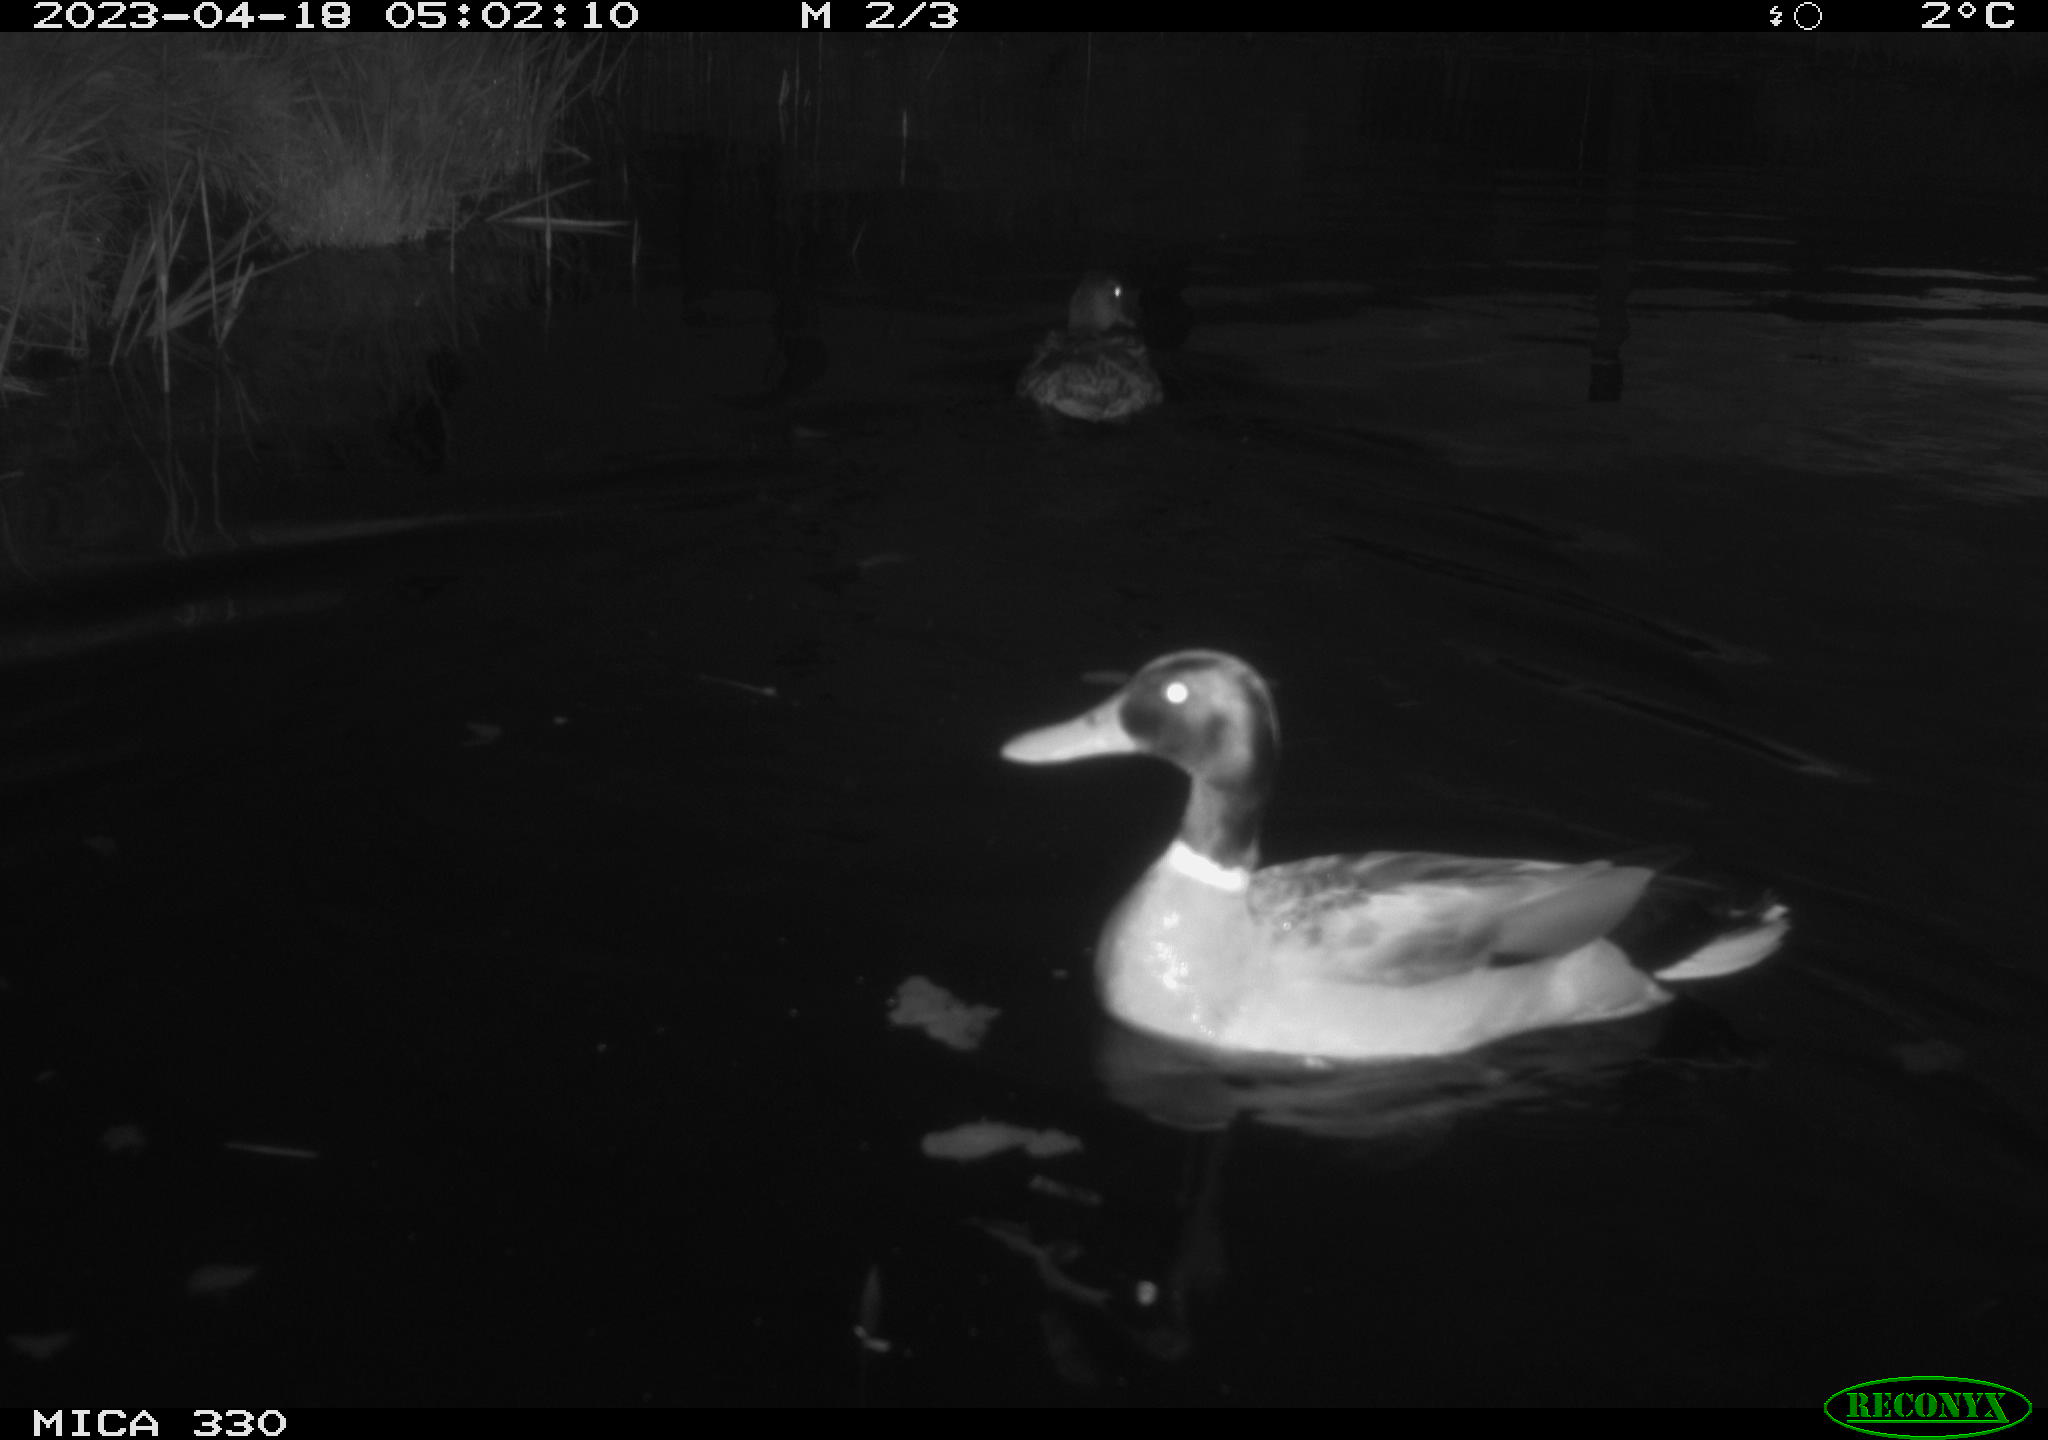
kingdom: Animalia
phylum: Chordata
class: Aves
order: Anseriformes
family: Anatidae
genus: Anas
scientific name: Anas
